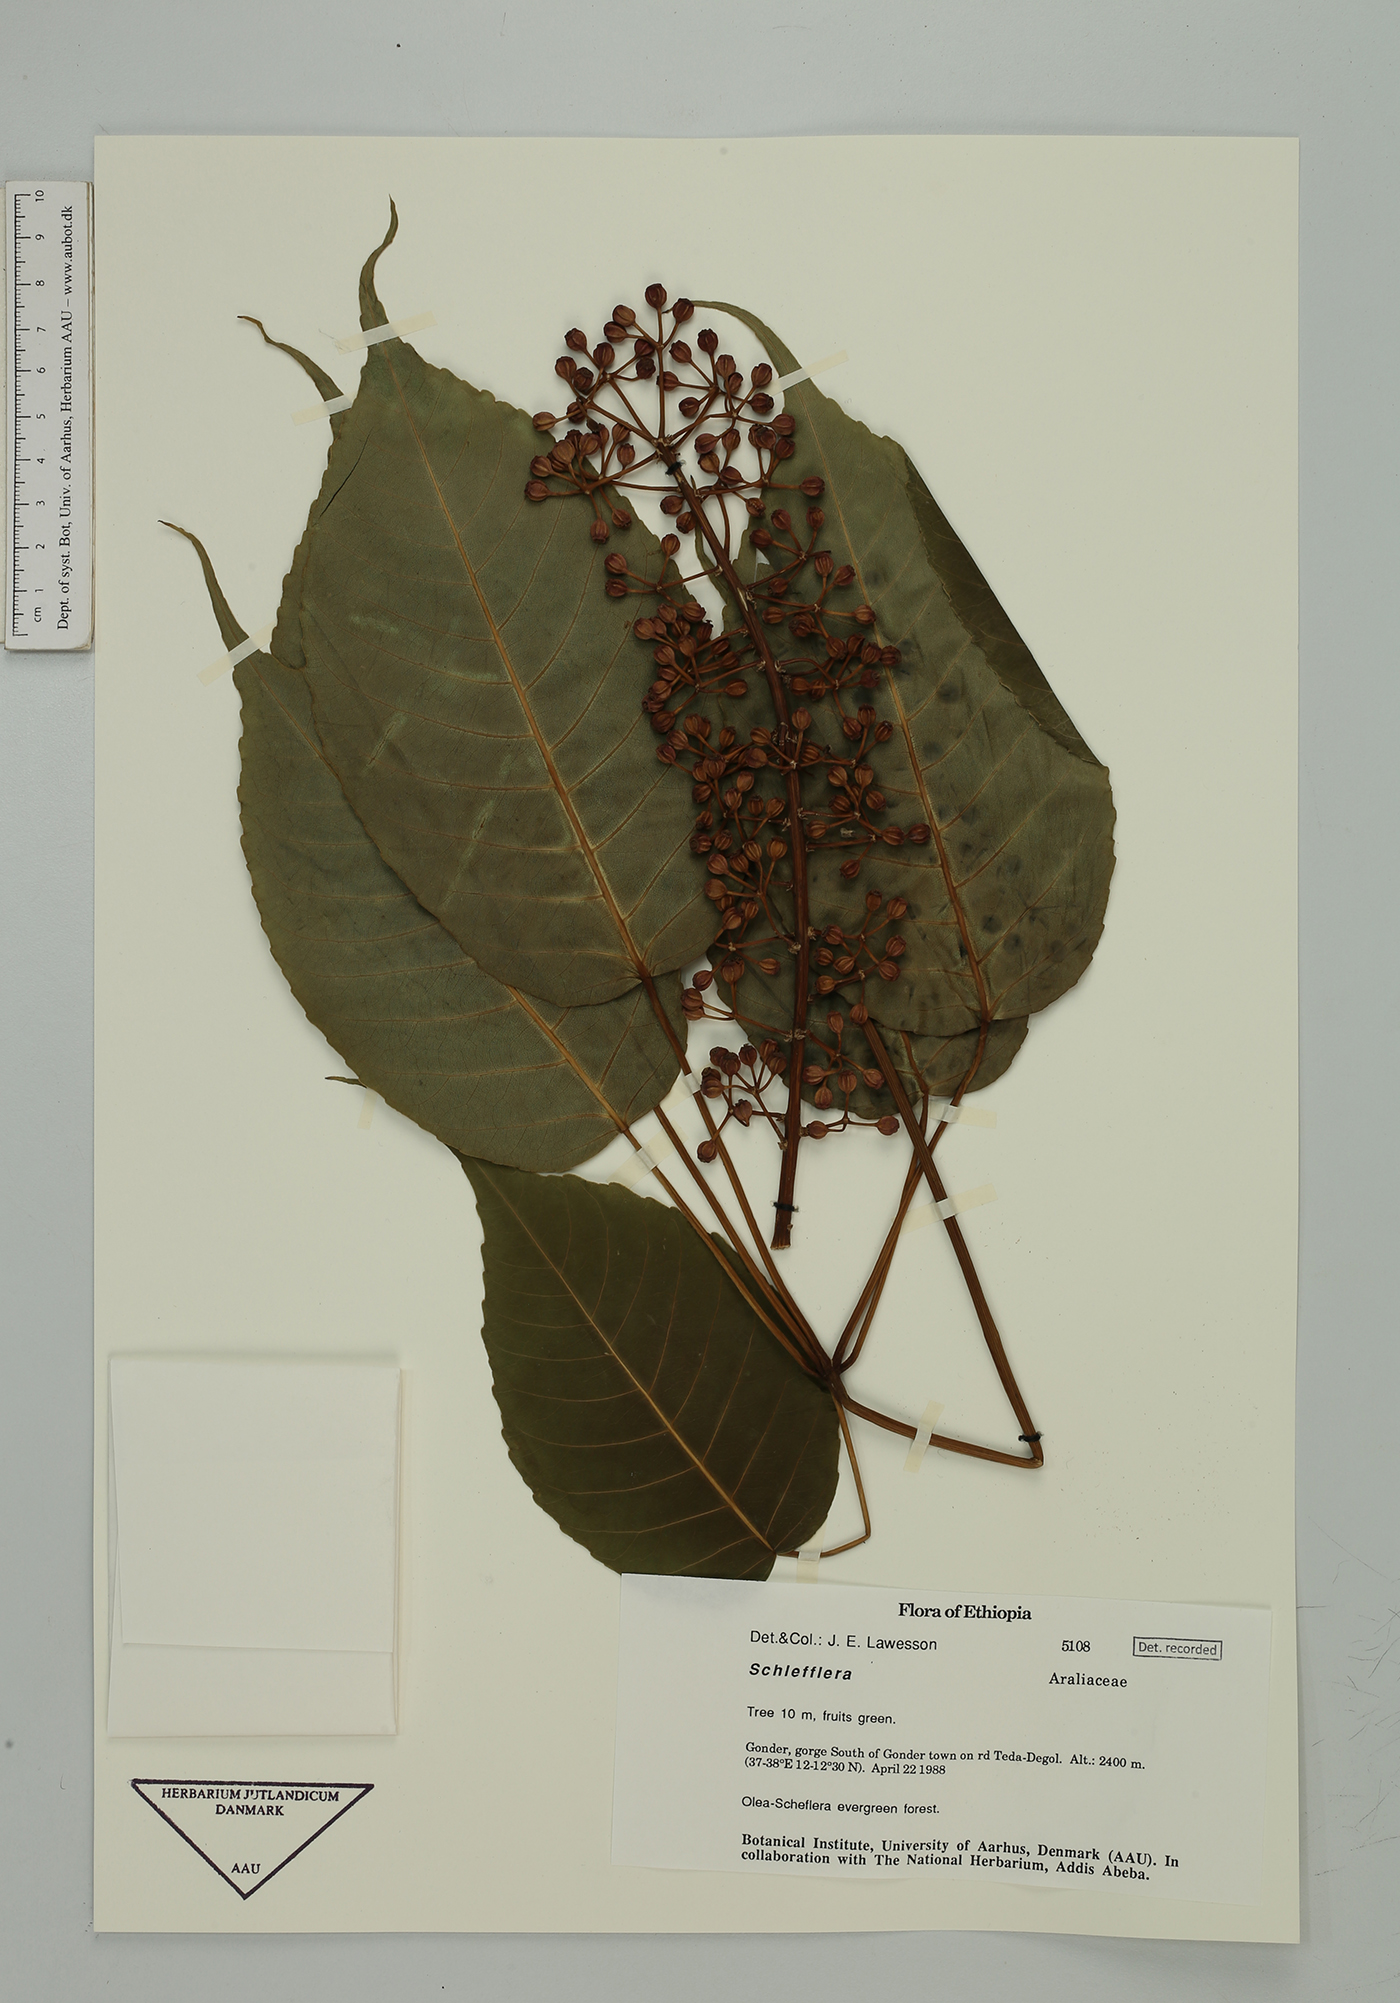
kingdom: Plantae
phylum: Tracheophyta
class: Magnoliopsida
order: Apiales
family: Araliaceae
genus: Schefflera
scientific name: Schefflera
